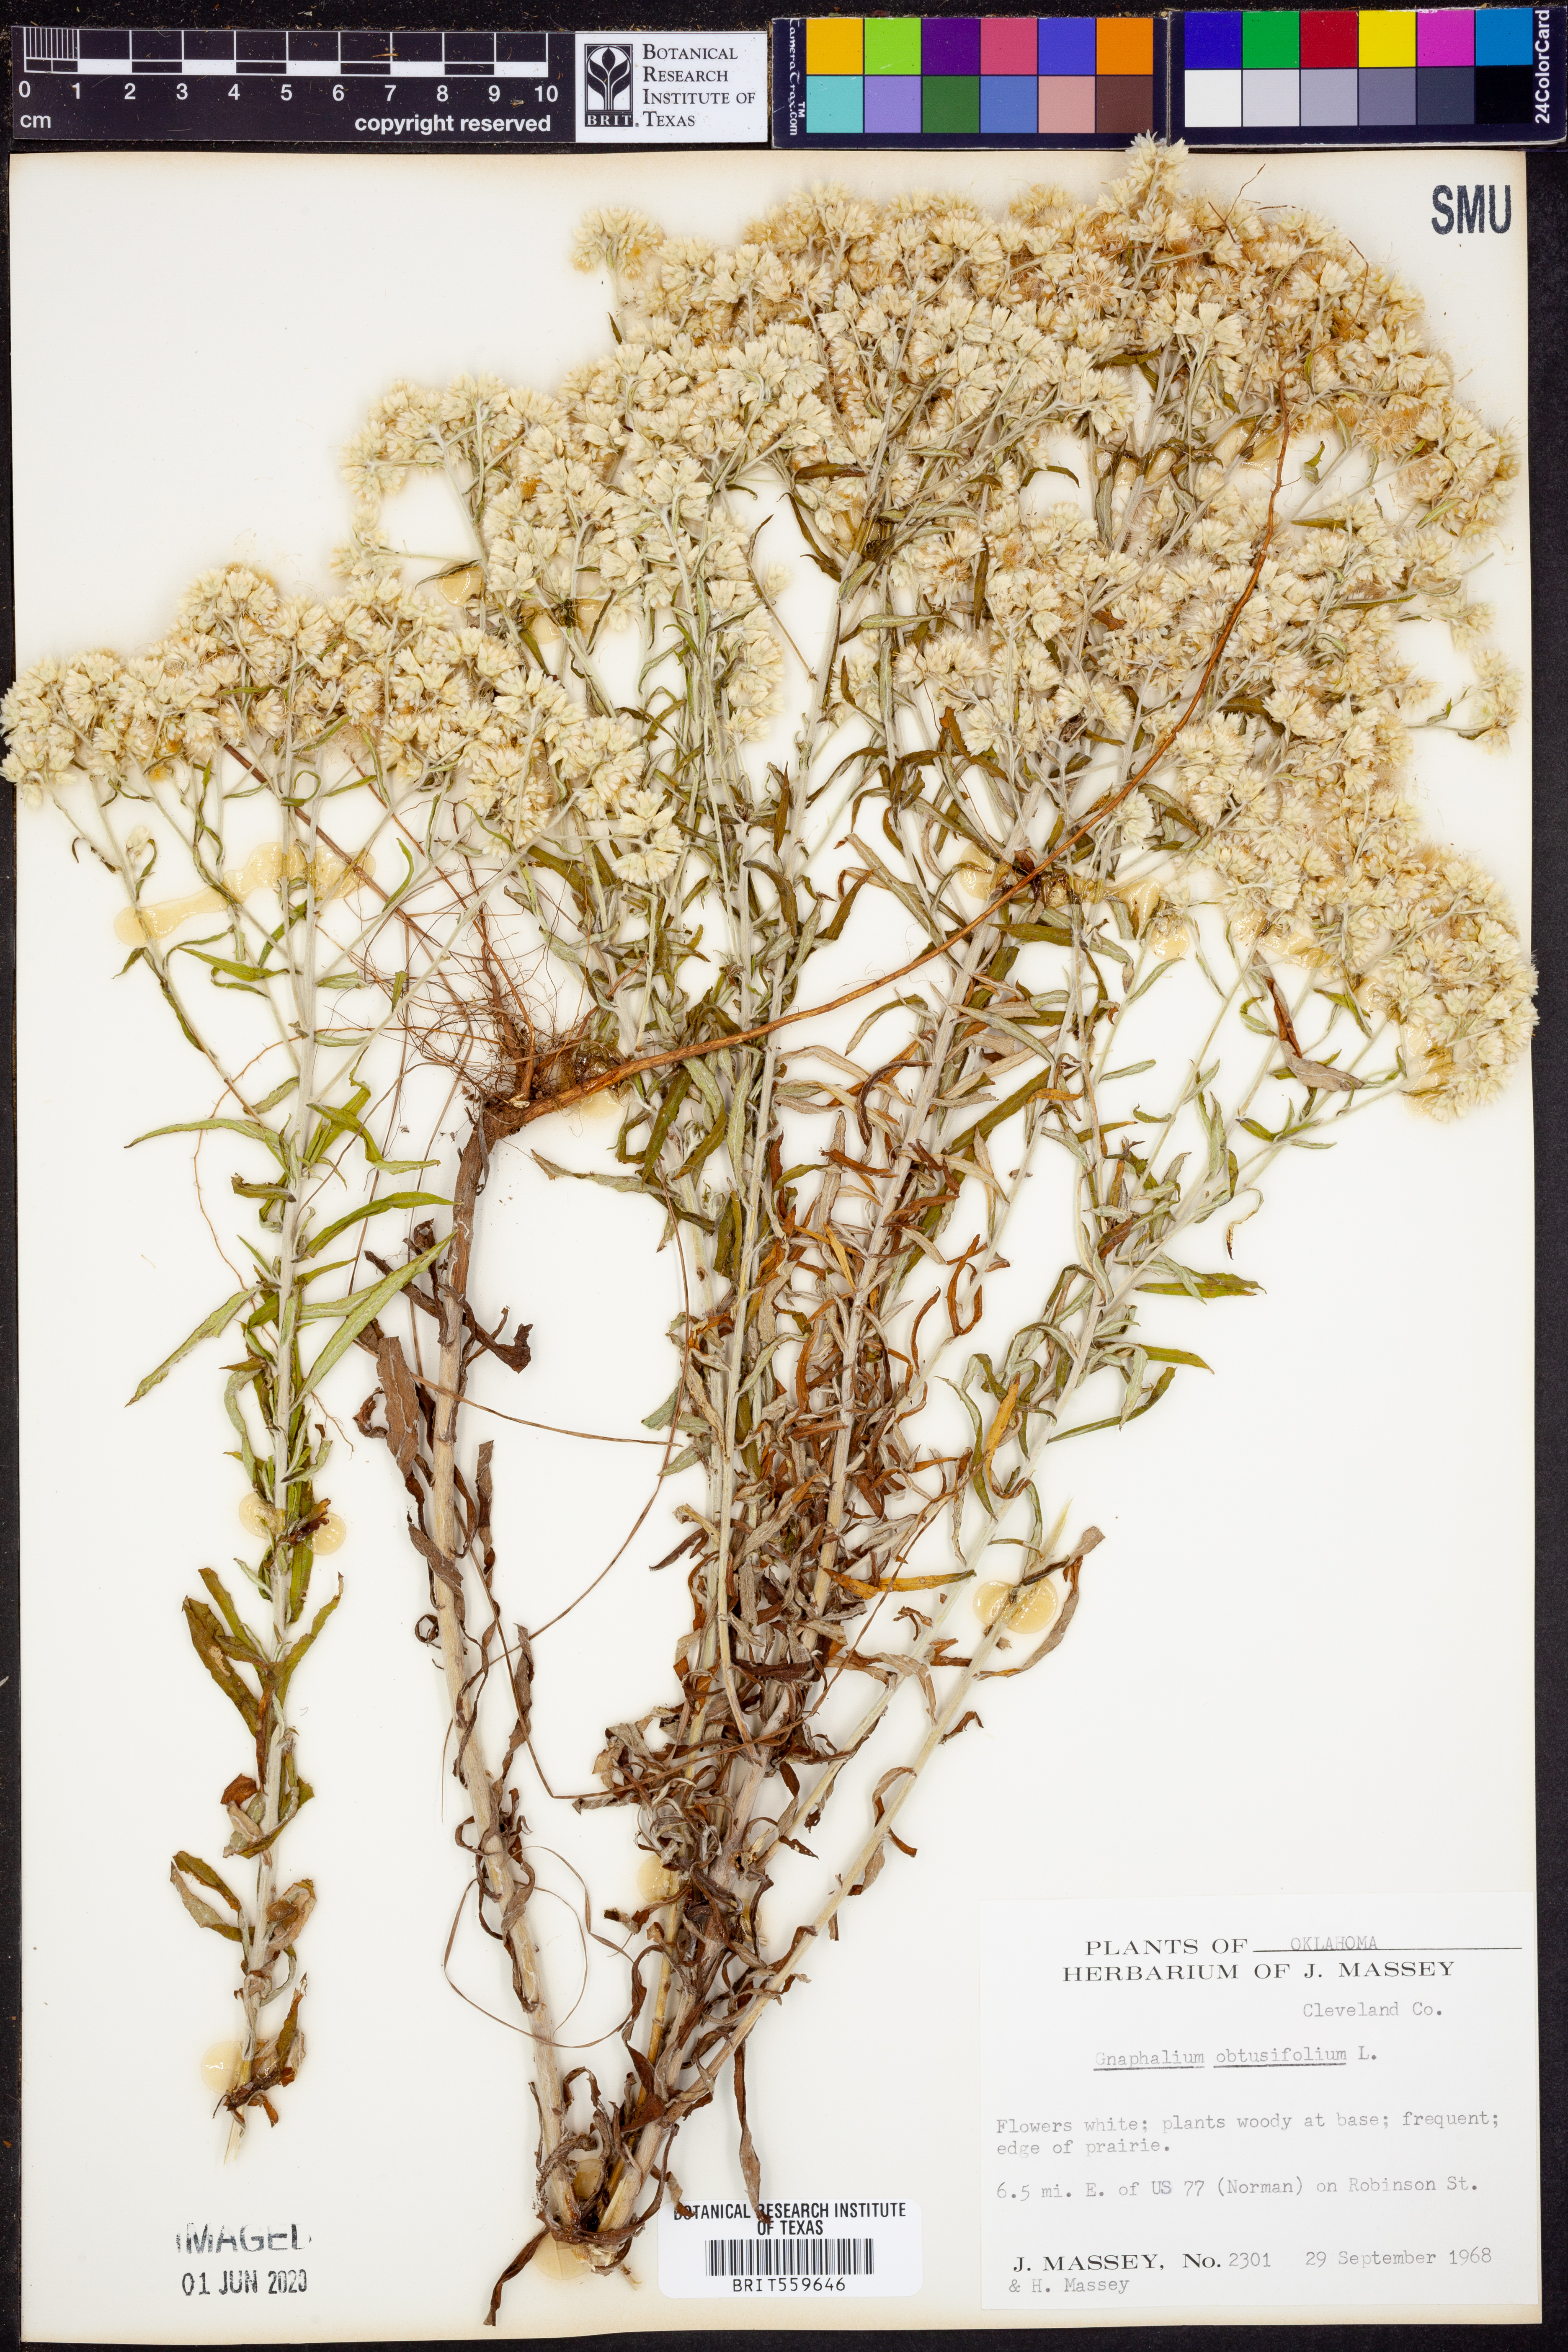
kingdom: Plantae
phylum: Tracheophyta
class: Magnoliopsida
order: Asterales
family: Asteraceae
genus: Pseudognaphalium
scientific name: Pseudognaphalium obtusifolium
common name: Eastern rabbit-tobacco
